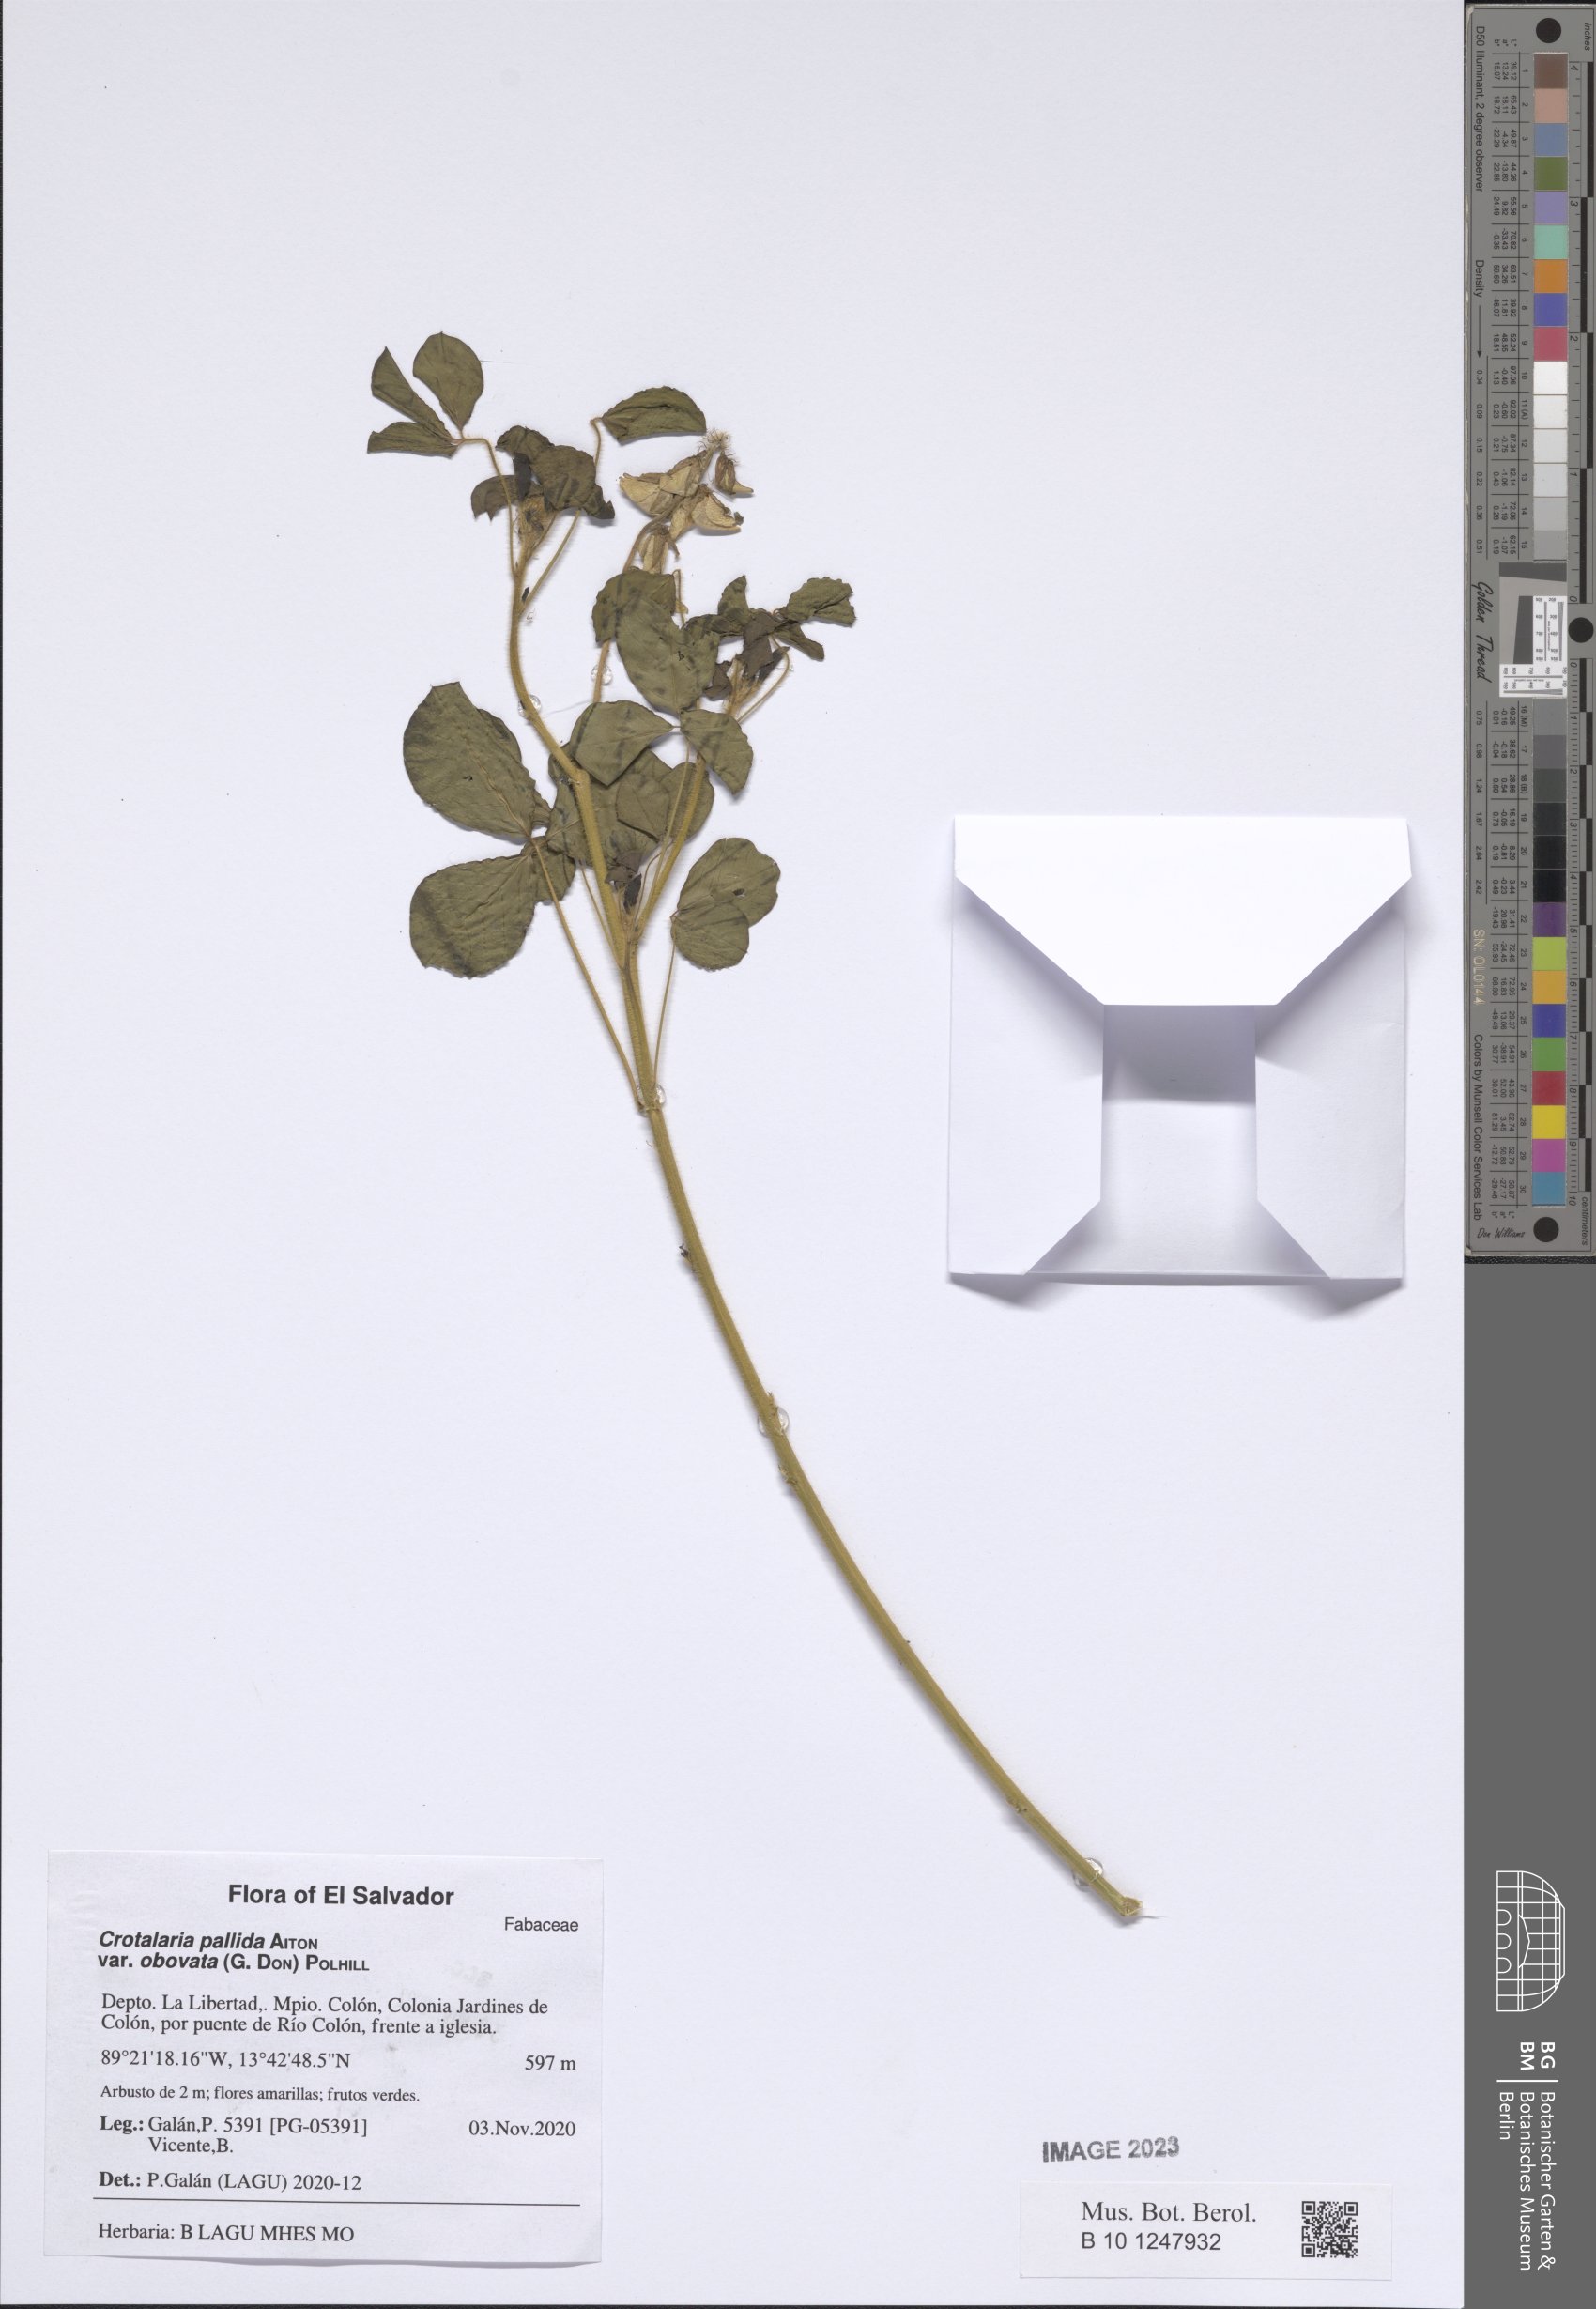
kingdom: Plantae
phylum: Tracheophyta
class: Magnoliopsida
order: Fabales
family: Fabaceae
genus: Crotalaria
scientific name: Crotalaria pallida
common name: Smooth rattlebox
